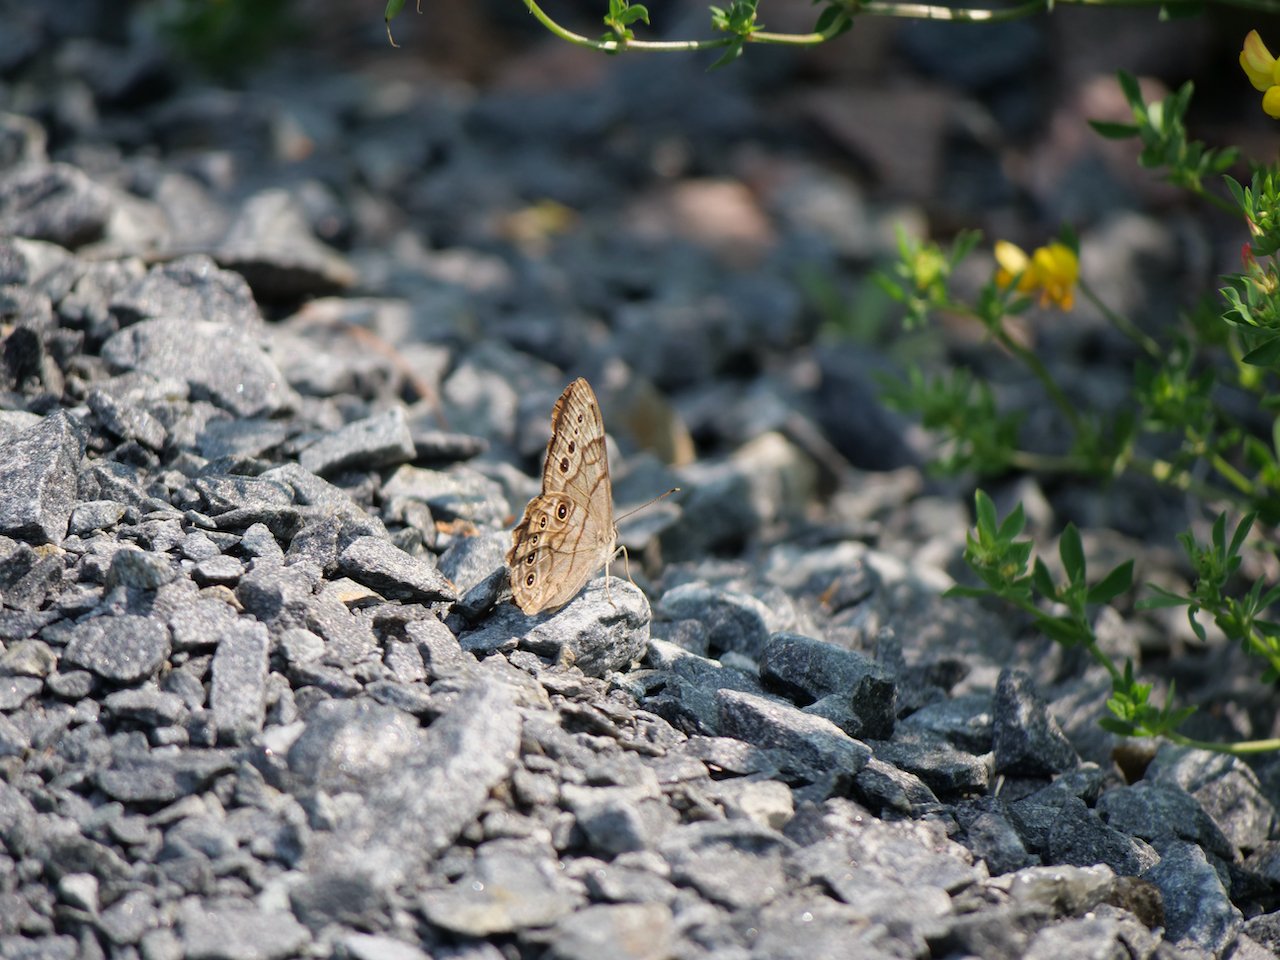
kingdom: Animalia
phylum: Arthropoda
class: Insecta
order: Lepidoptera
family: Nymphalidae
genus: Lethe
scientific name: Lethe anthedon
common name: Northern Pearly-Eye
